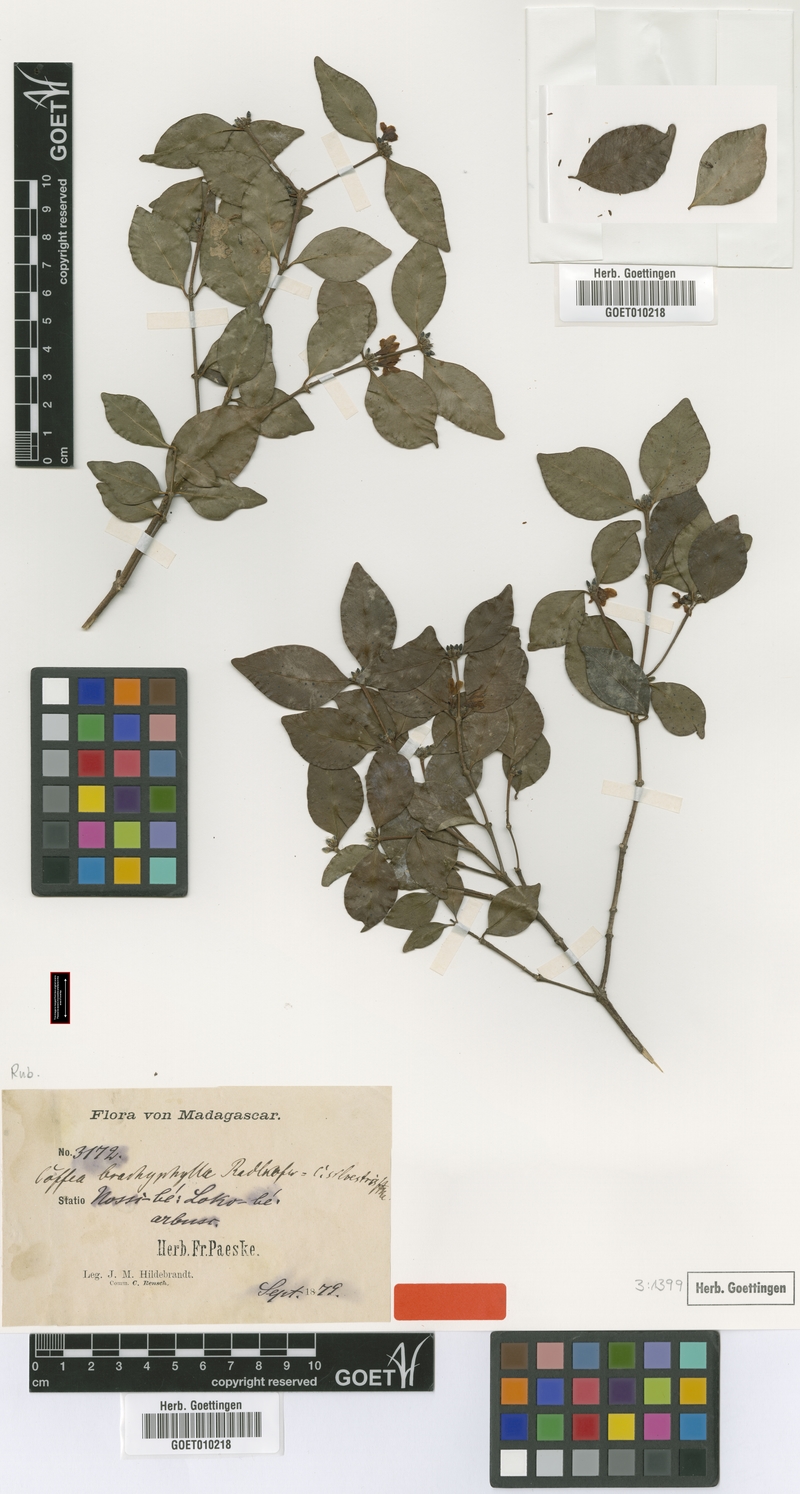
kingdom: Plantae
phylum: Tracheophyta
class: Magnoliopsida
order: Gentianales
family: Rubiaceae
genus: Coffea
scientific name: Coffea pervilleana
